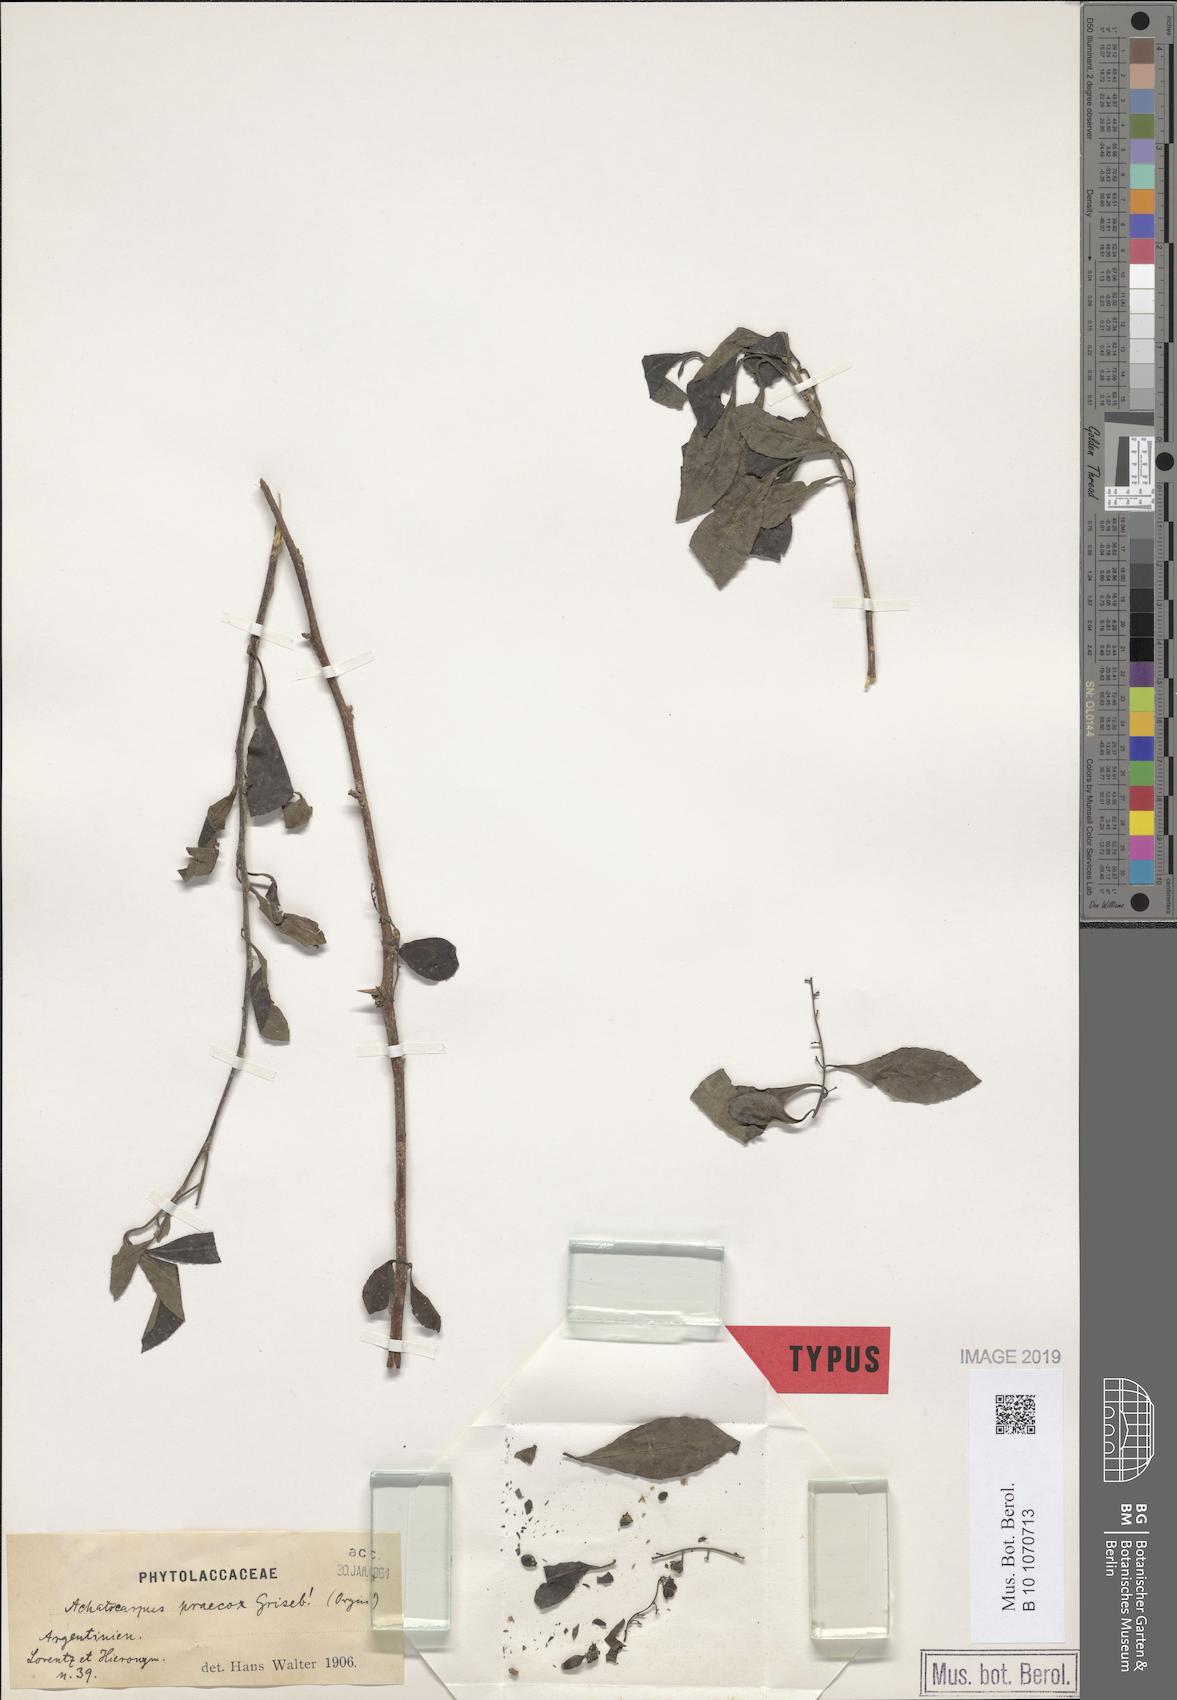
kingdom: Plantae
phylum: Tracheophyta
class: Magnoliopsida
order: Caryophyllales
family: Achatocarpaceae
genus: Achatocarpus
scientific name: Achatocarpus praecox
